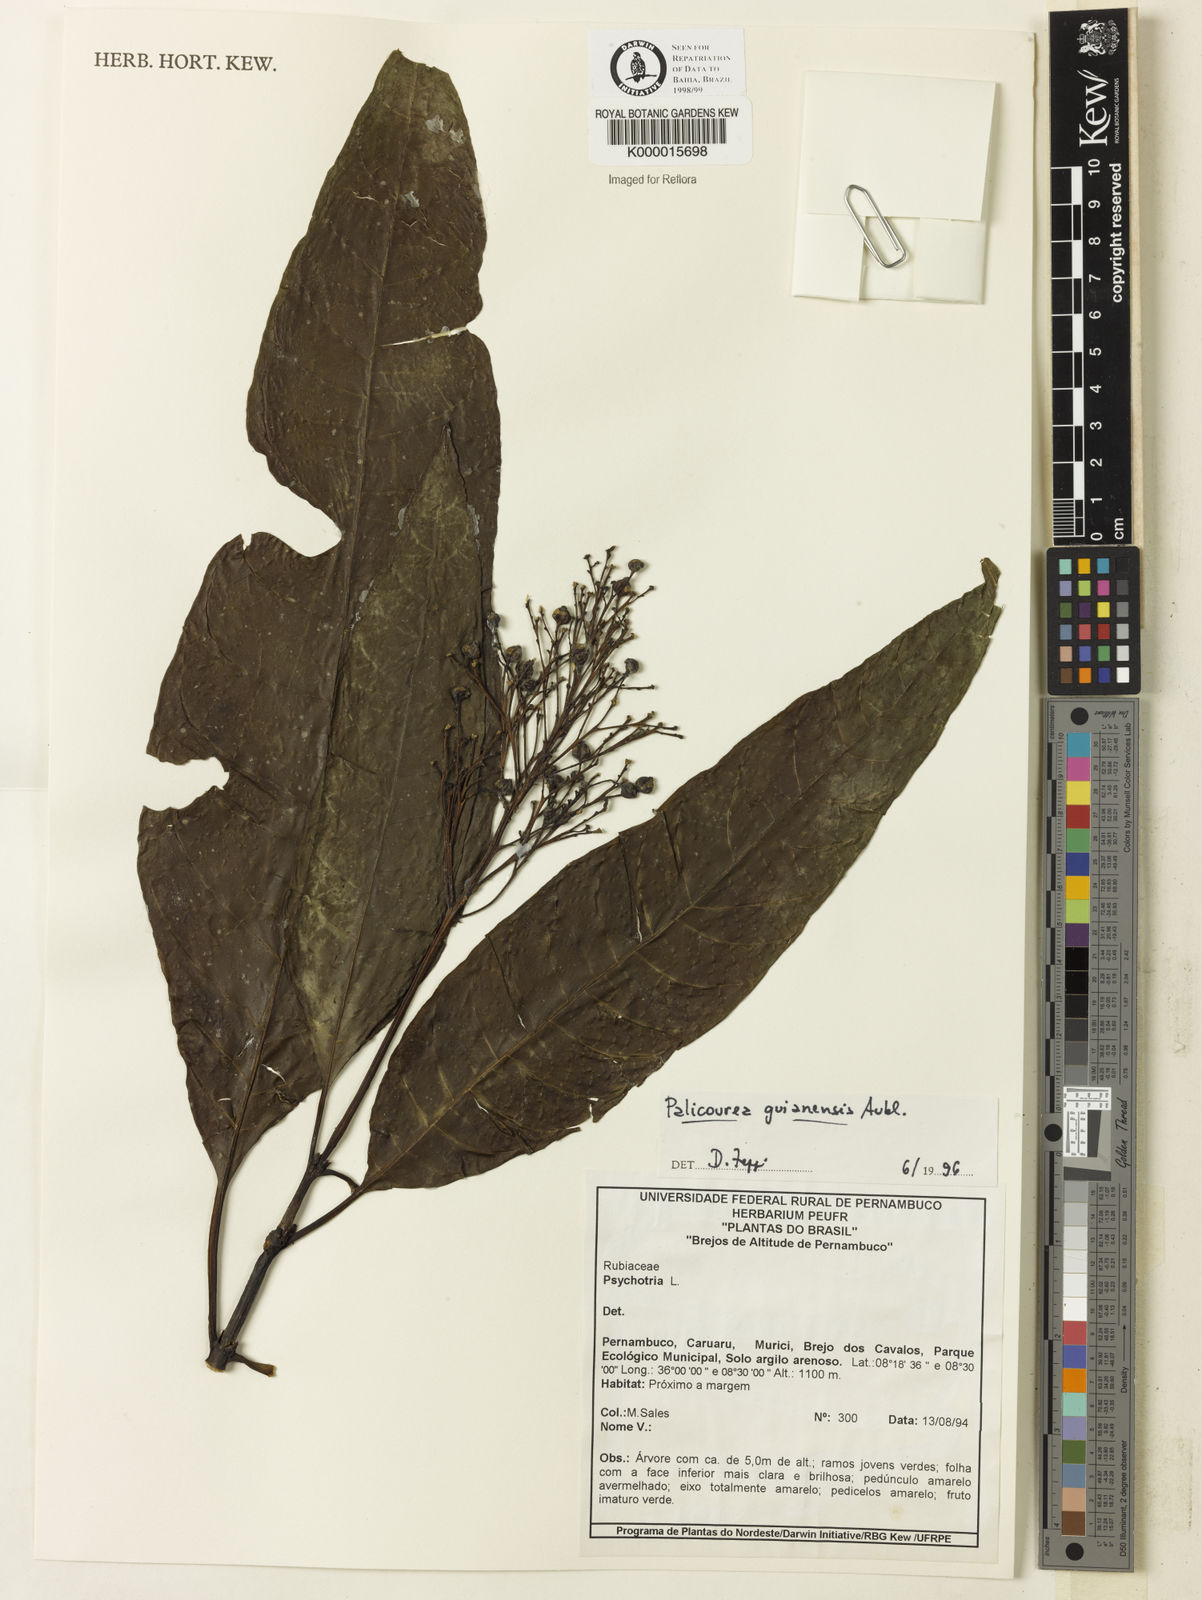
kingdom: Plantae
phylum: Tracheophyta
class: Magnoliopsida
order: Gentianales
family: Rubiaceae
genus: Palicourea
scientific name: Palicourea guianensis
